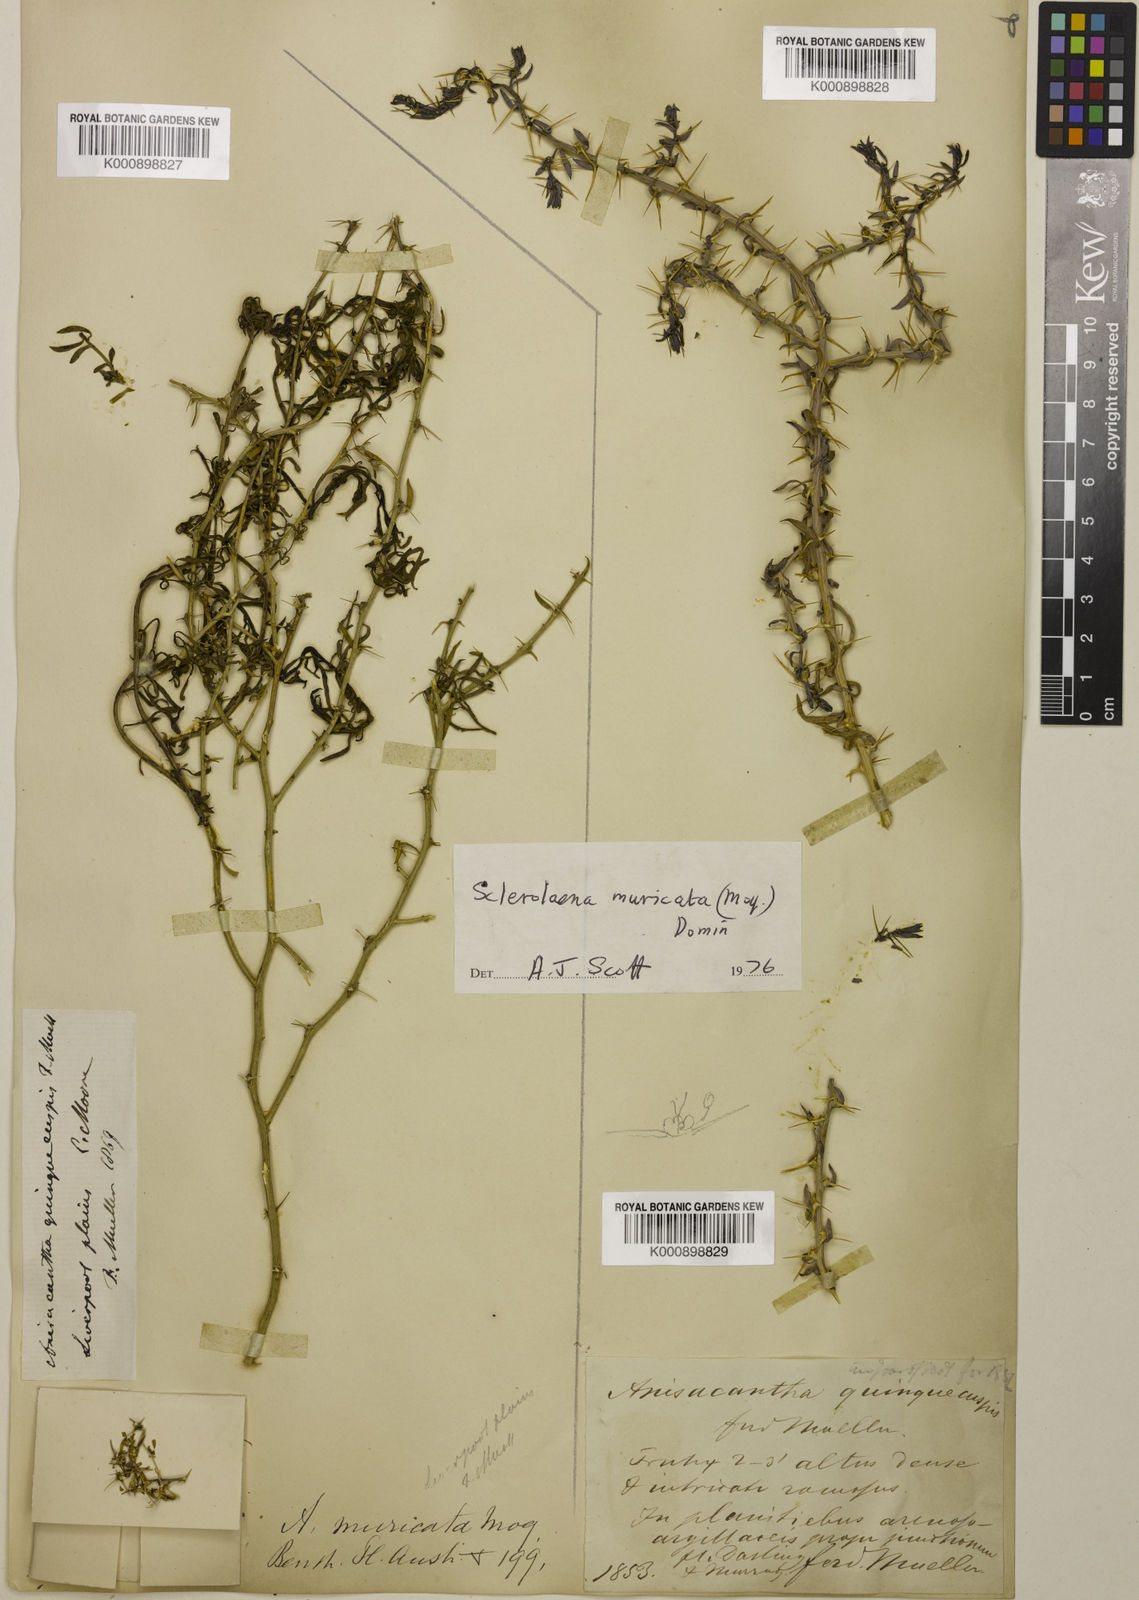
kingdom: Plantae
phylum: Tracheophyta
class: Magnoliopsida
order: Caryophyllales
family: Amaranthaceae
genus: Sclerolaena
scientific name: Sclerolaena muricata
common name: Roly-poly
